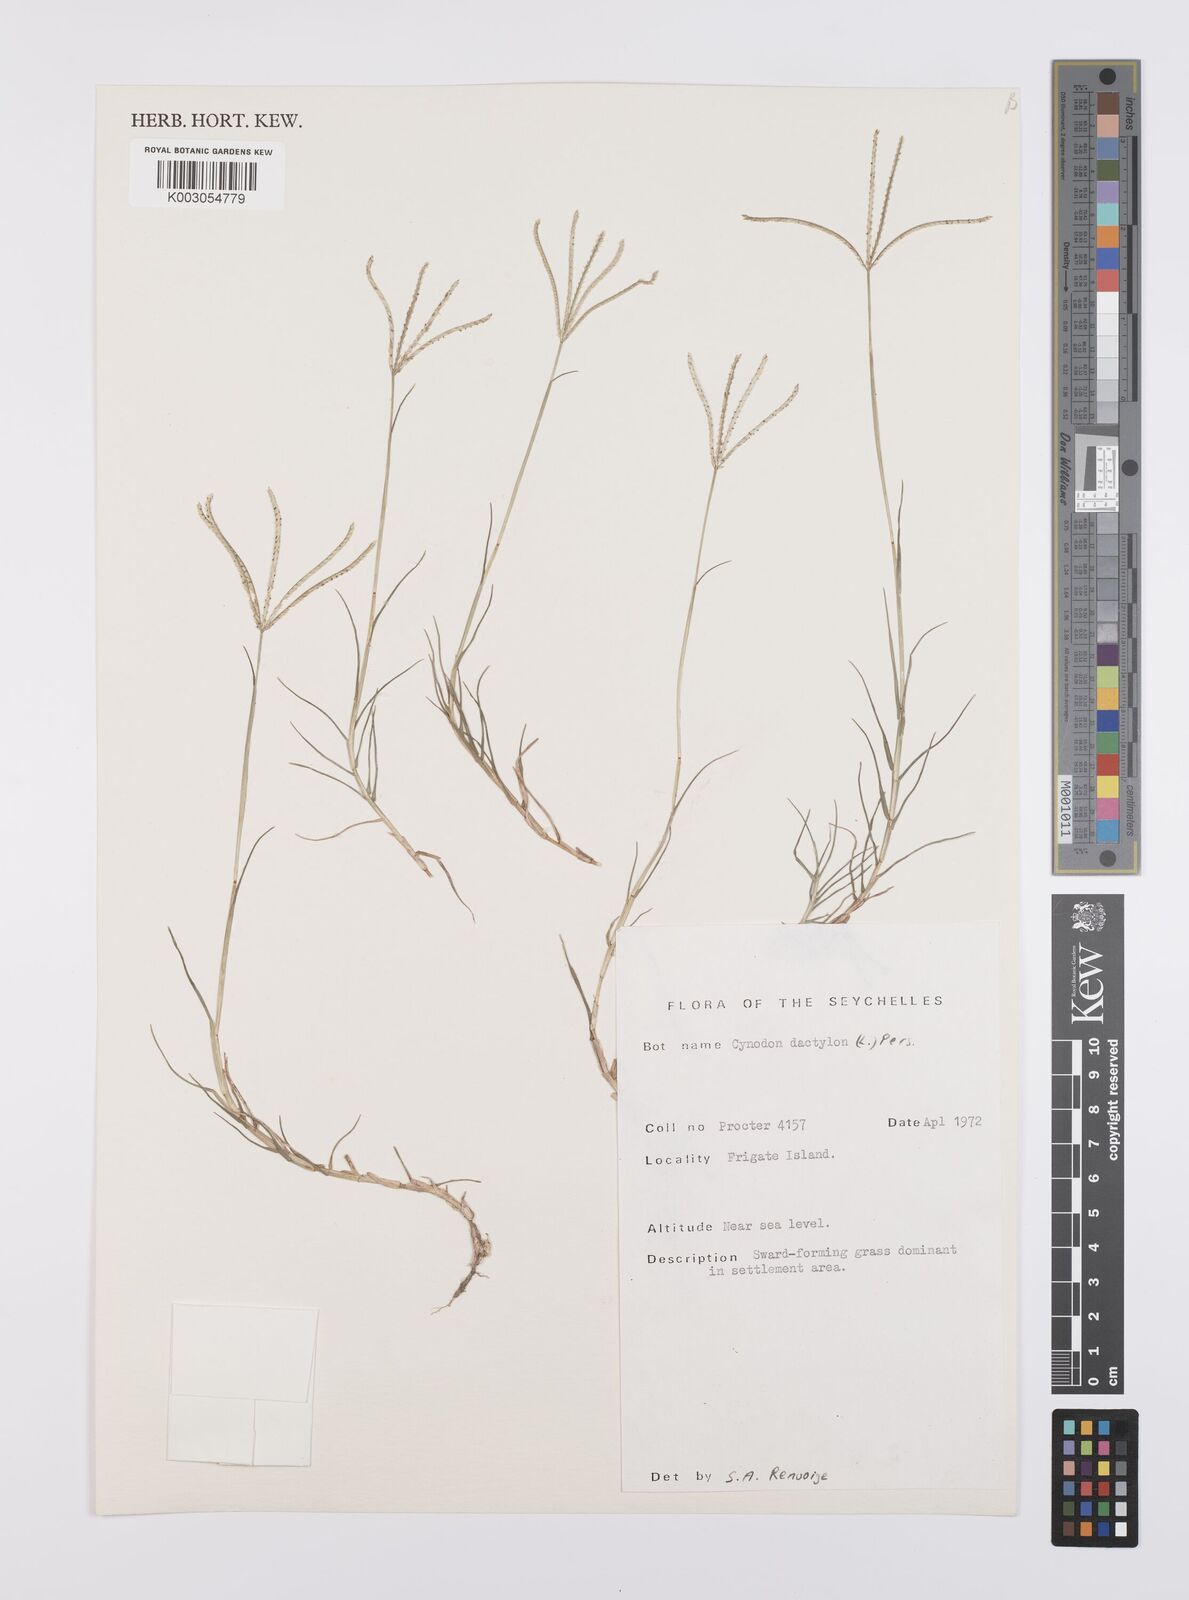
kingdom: Plantae
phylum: Tracheophyta
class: Liliopsida
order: Poales
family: Poaceae
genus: Cynodon
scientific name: Cynodon dactylon
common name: Bermuda grass
